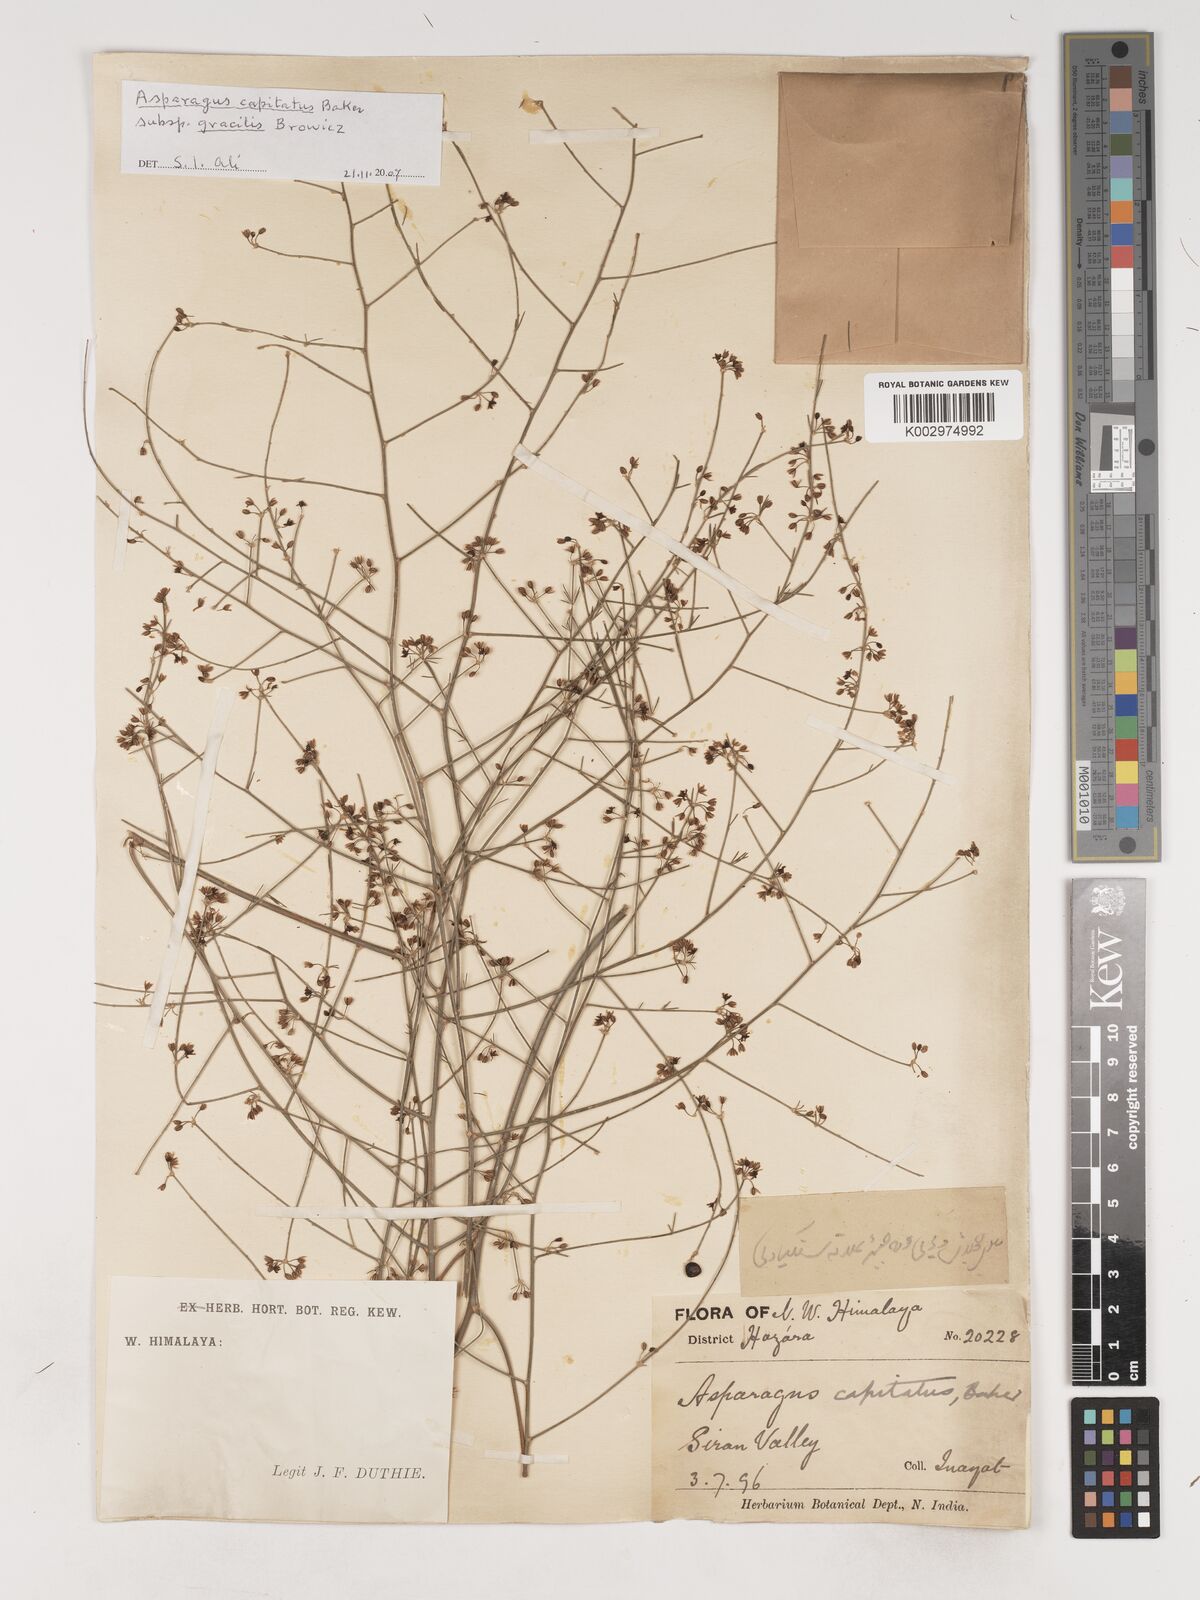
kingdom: Plantae
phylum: Tracheophyta
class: Liliopsida
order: Asparagales
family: Asparagaceae
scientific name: Asparagaceae
